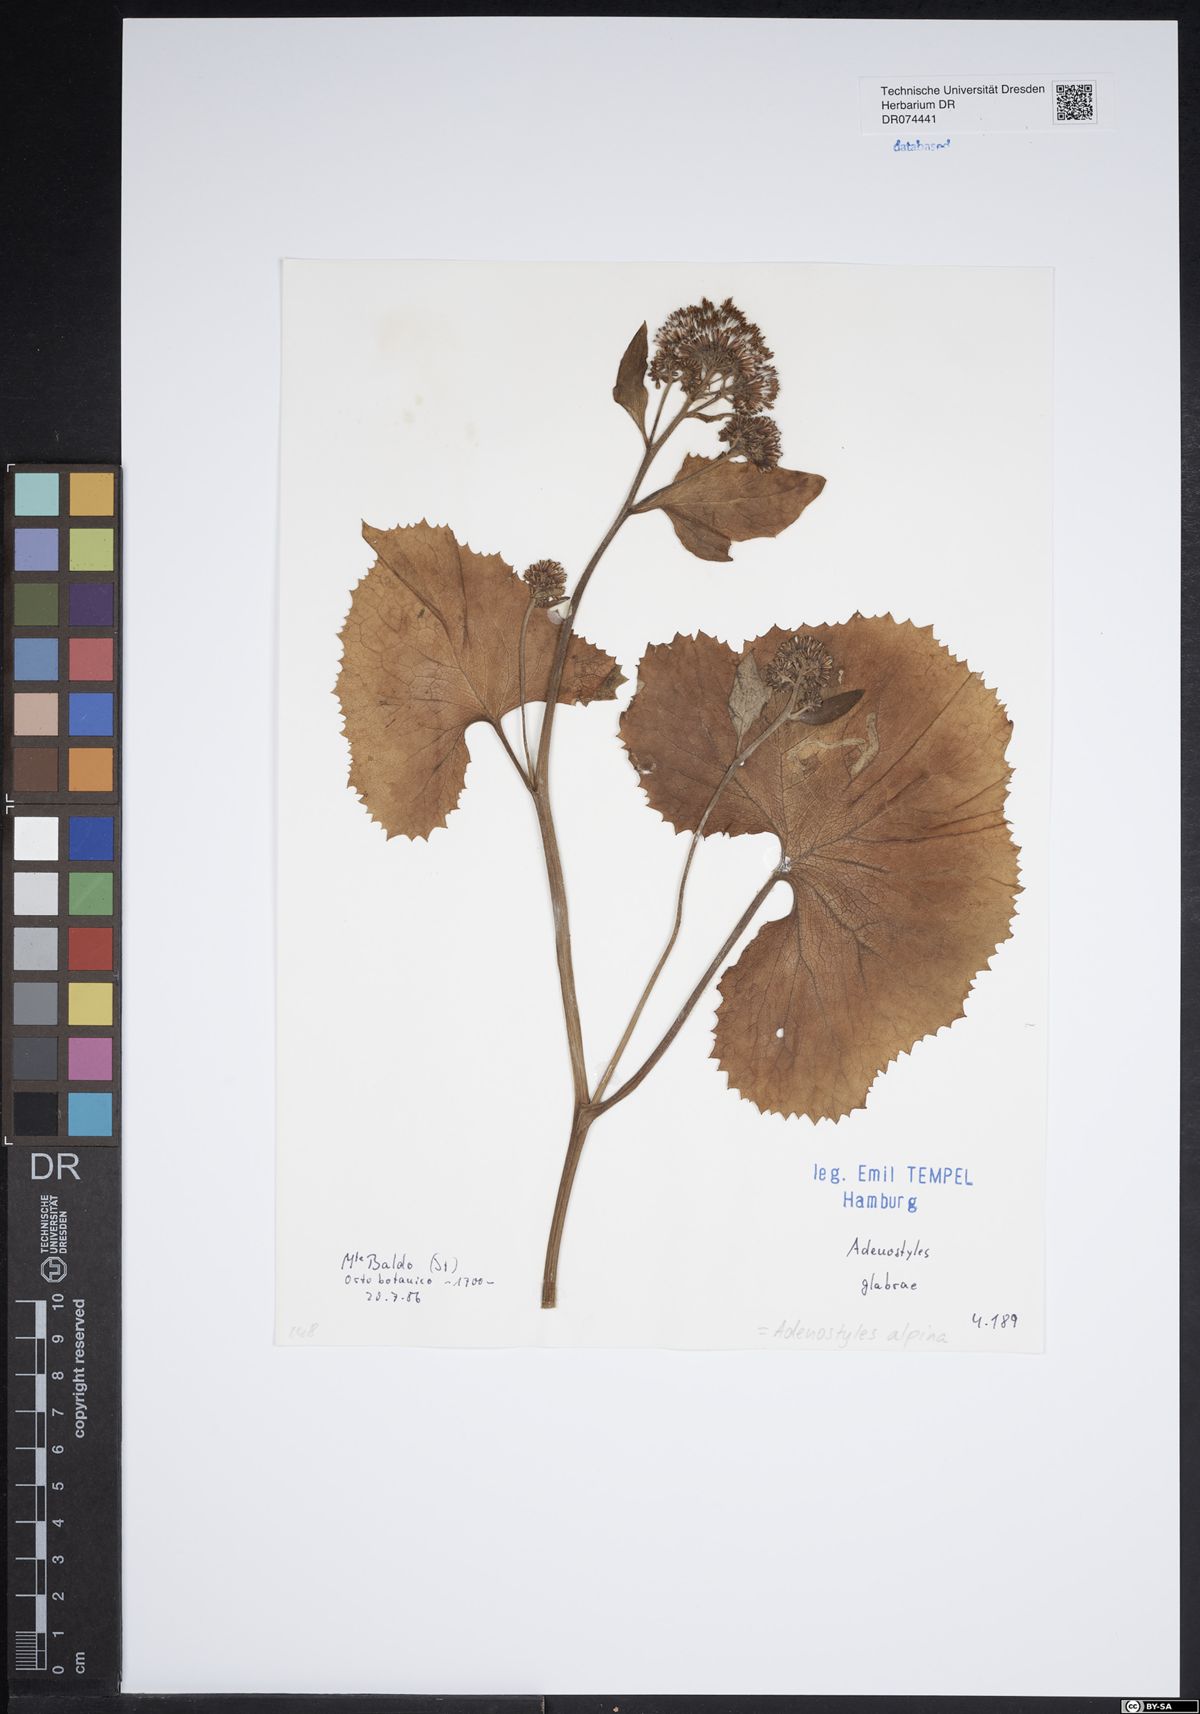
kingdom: Plantae
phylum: Tracheophyta
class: Magnoliopsida
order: Asterales
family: Asteraceae
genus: Adenostyles
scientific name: Adenostyles alpina
